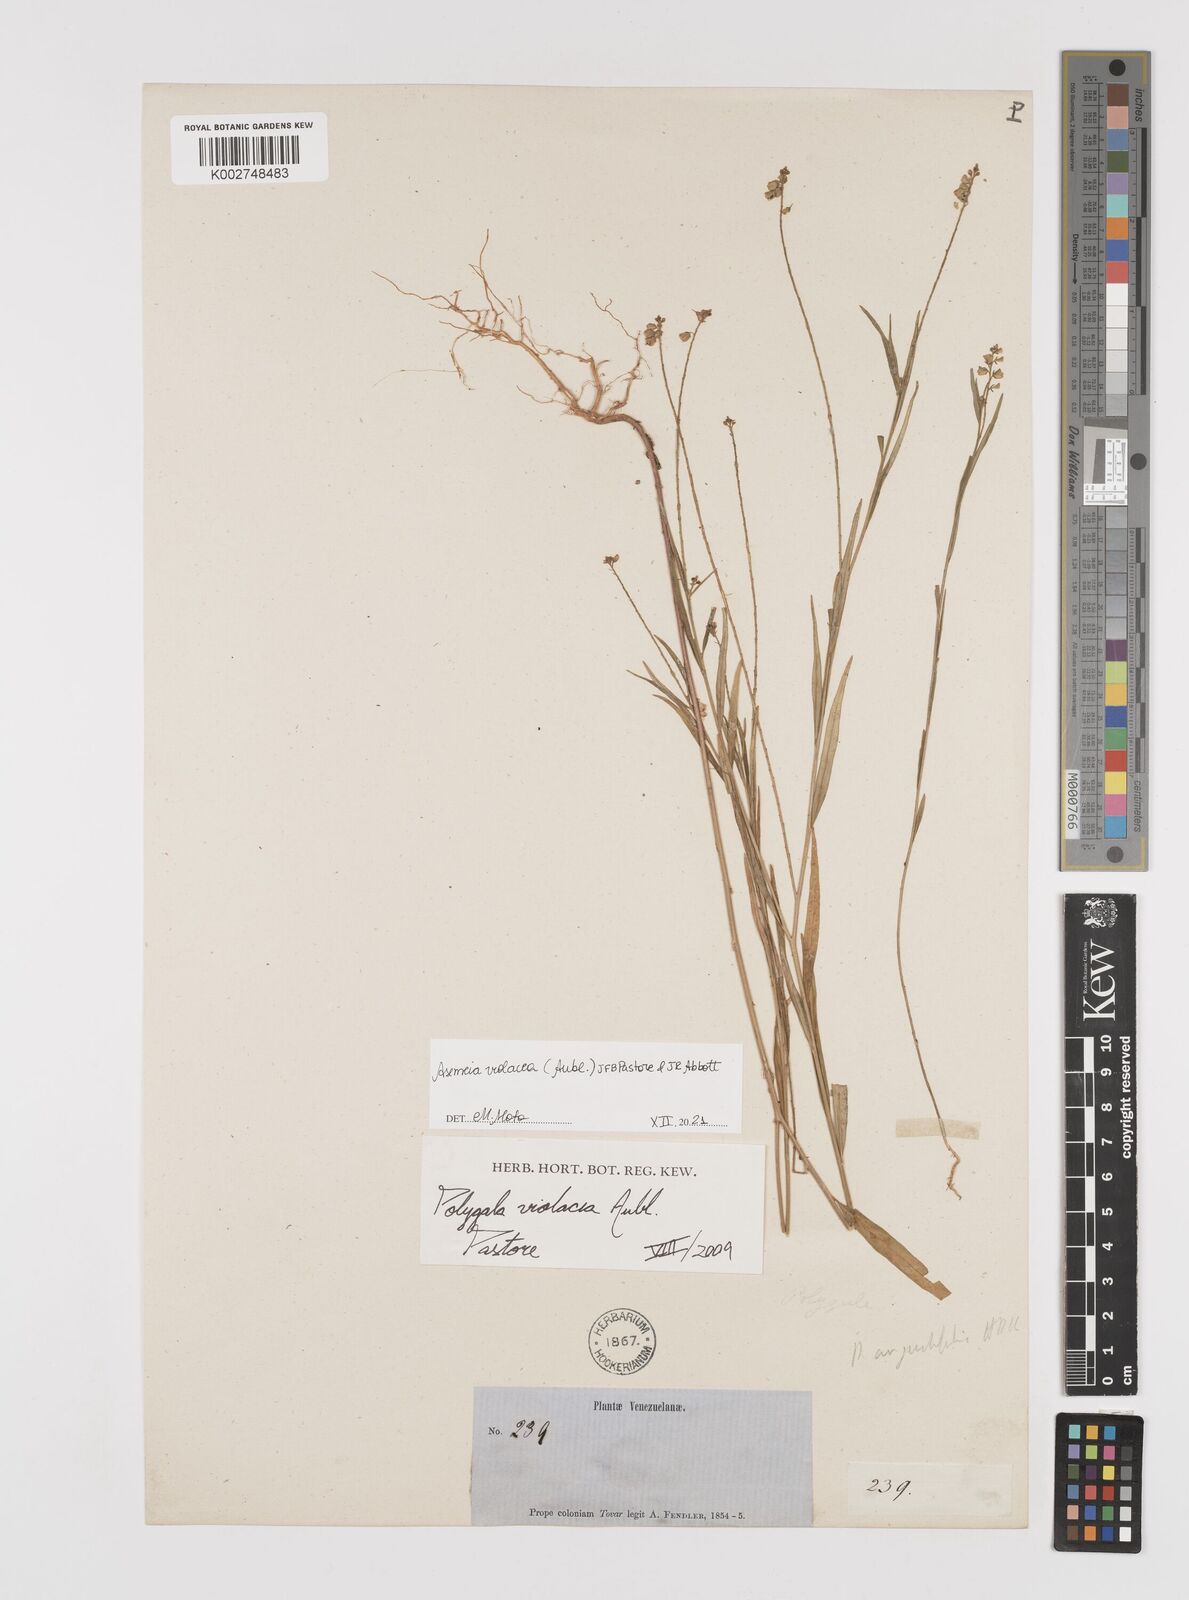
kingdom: Plantae
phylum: Tracheophyta
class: Magnoliopsida
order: Fabales
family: Polygalaceae
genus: Asemeia
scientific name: Asemeia violacea
